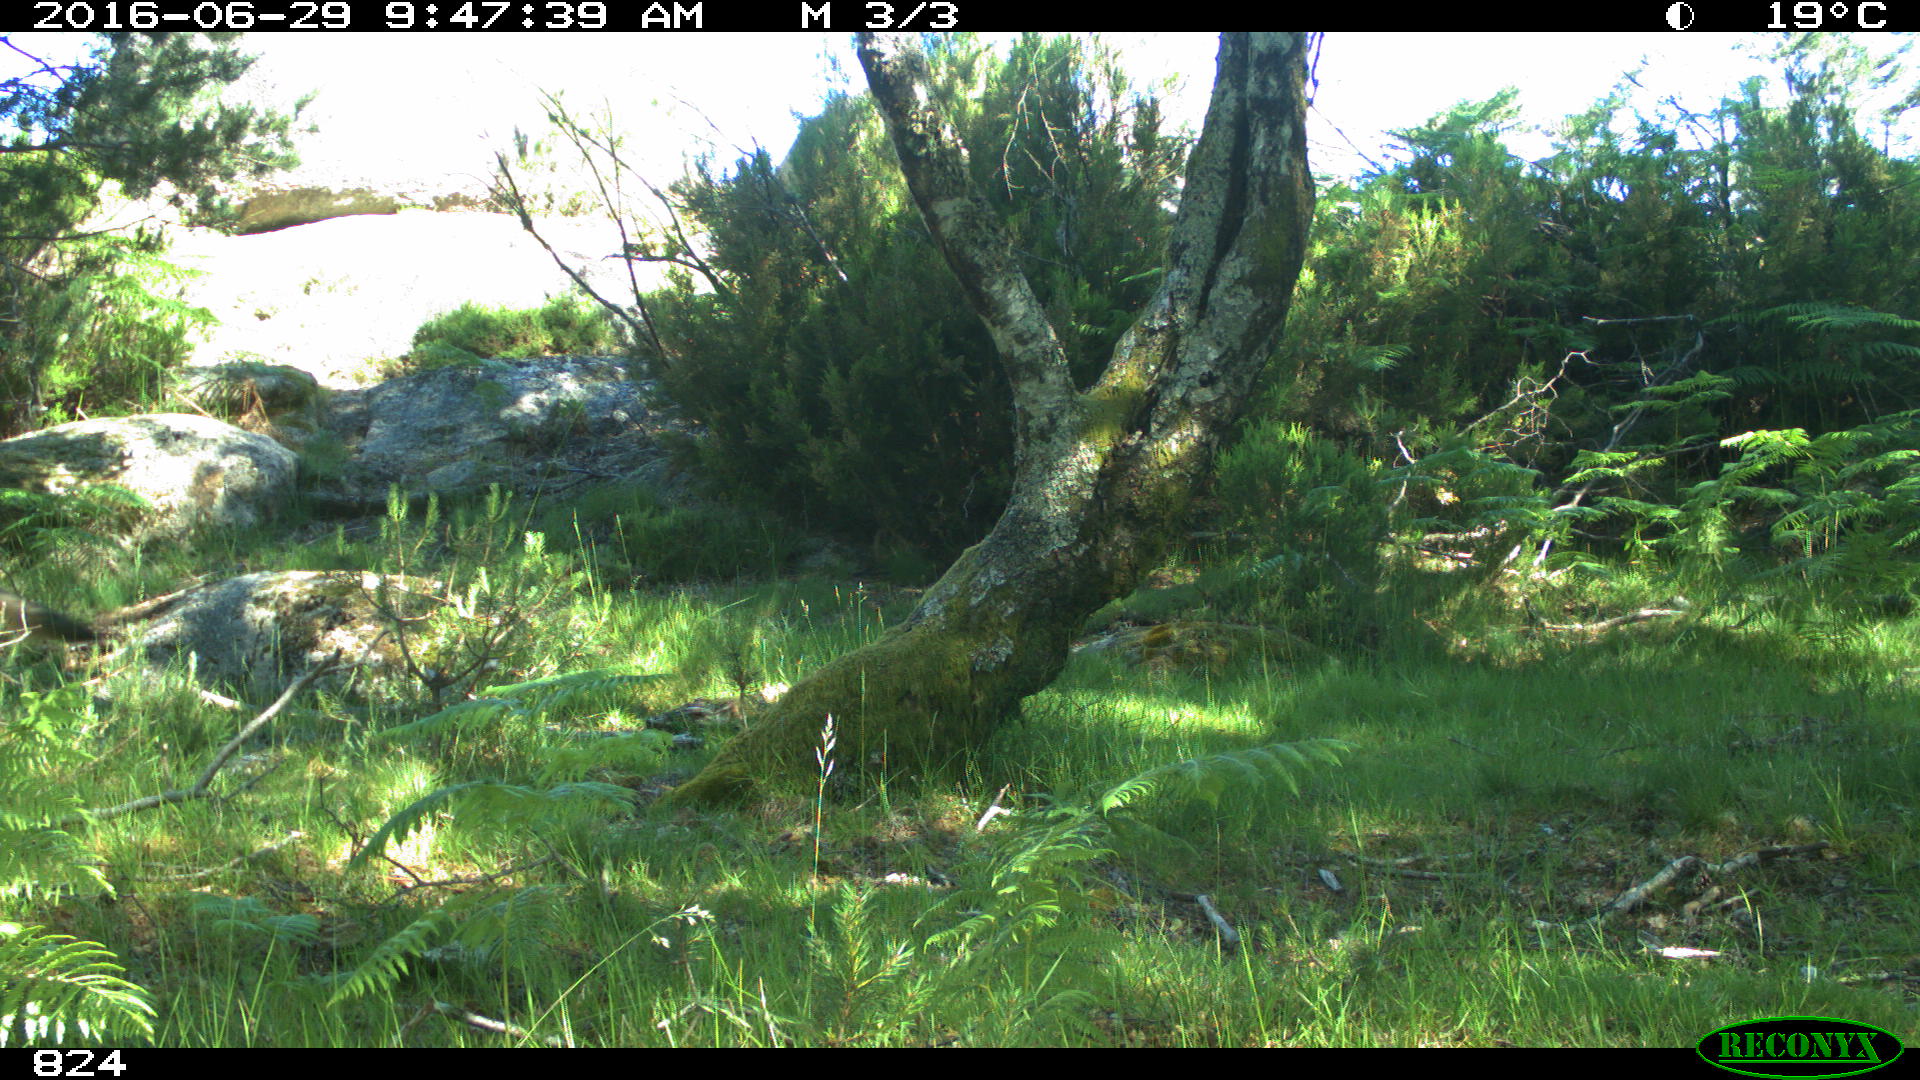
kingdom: Animalia
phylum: Chordata
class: Mammalia
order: Carnivora
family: Canidae
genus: Canis
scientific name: Canis lupus
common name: Gray wolf
